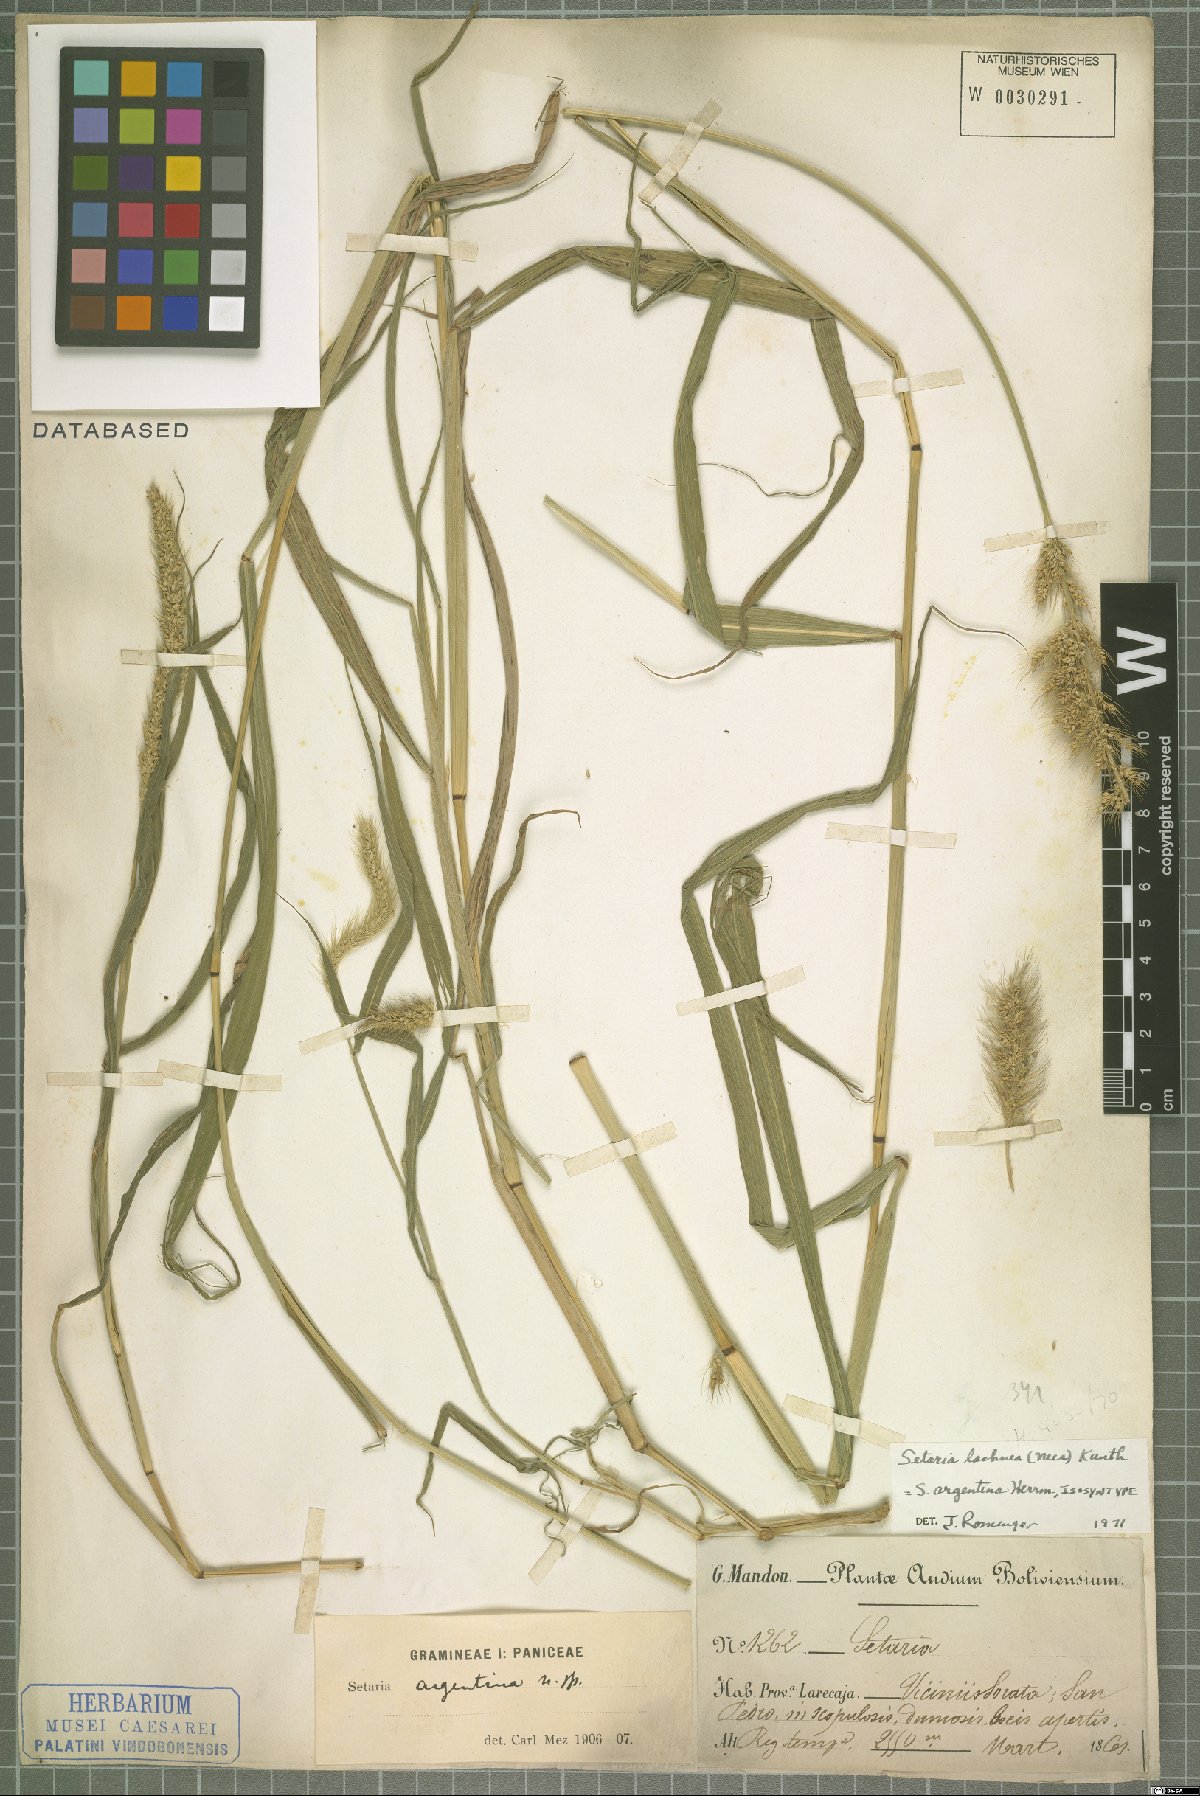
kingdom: Plantae
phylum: Tracheophyta
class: Liliopsida
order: Poales
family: Poaceae
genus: Setaria
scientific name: Setaria lachnea
